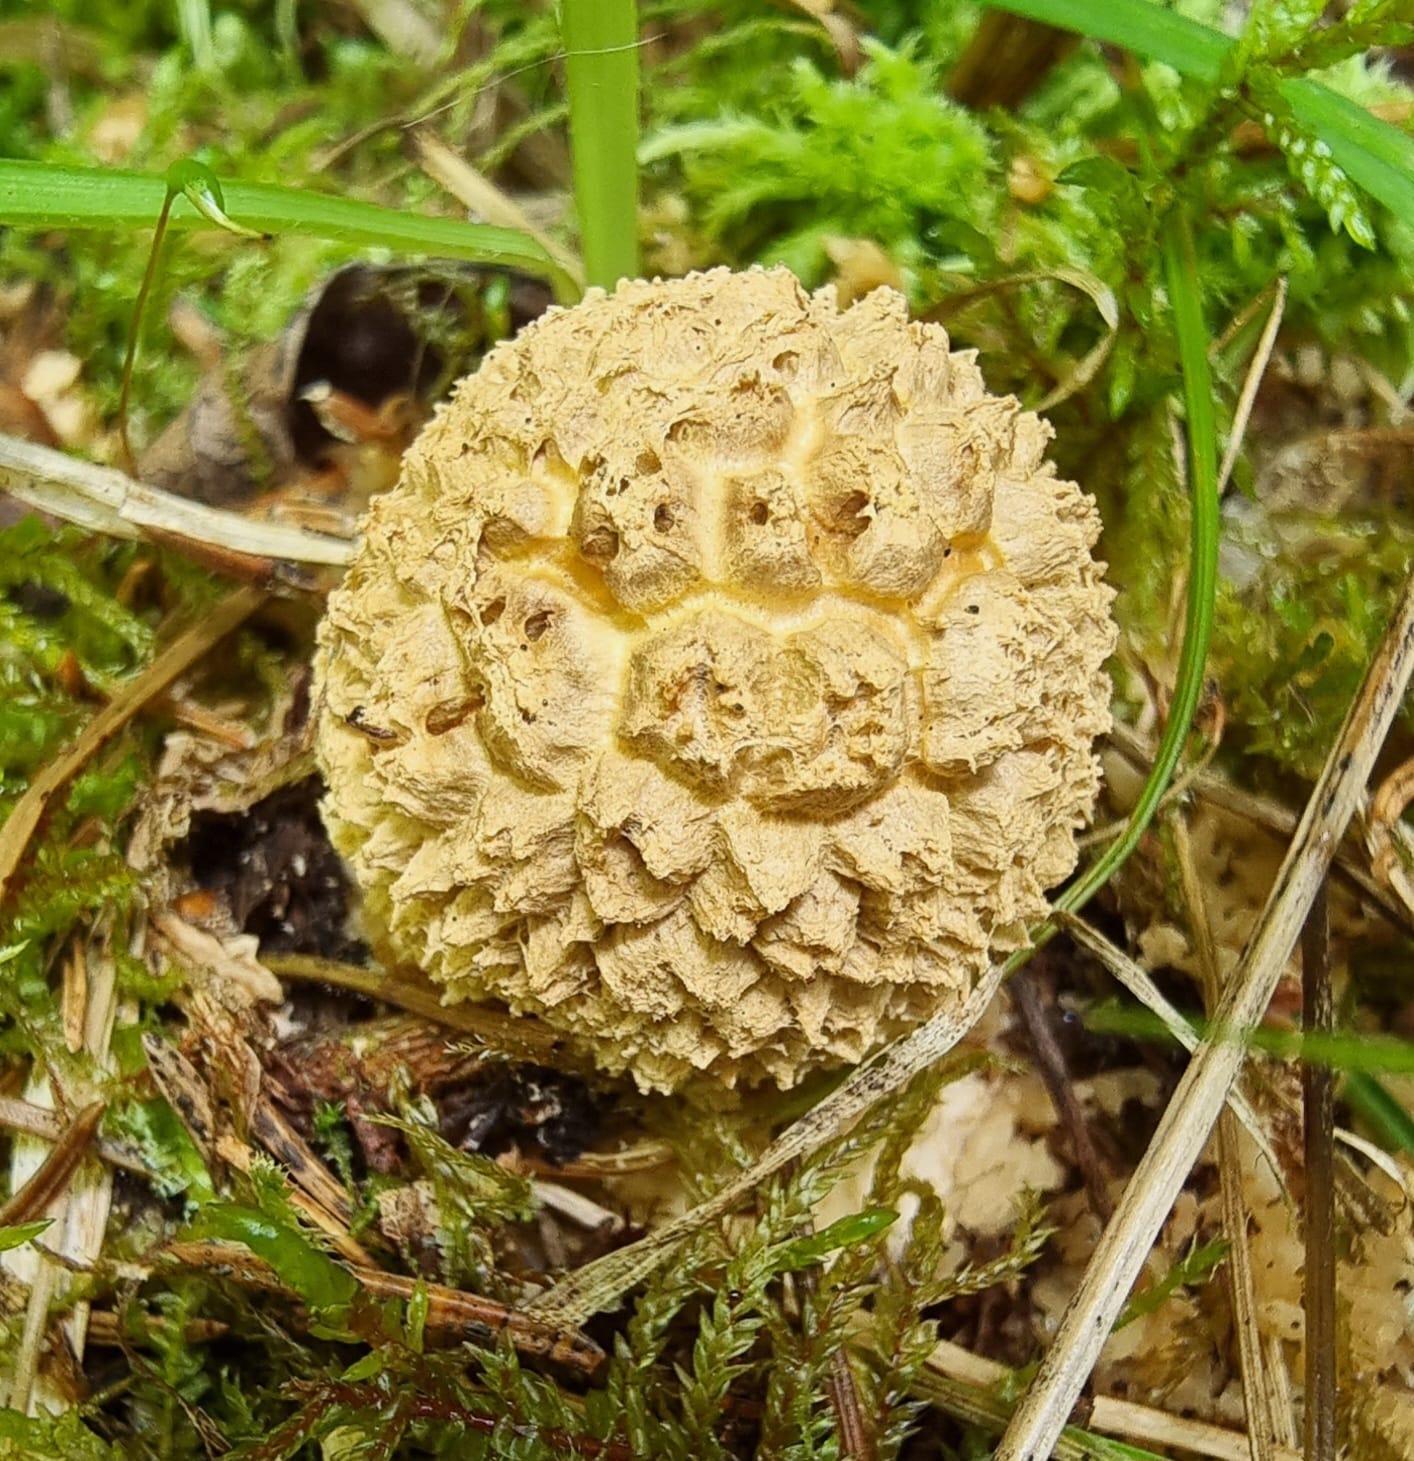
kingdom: Fungi
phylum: Basidiomycota
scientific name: Basidiomycota
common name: basidiesvampe
